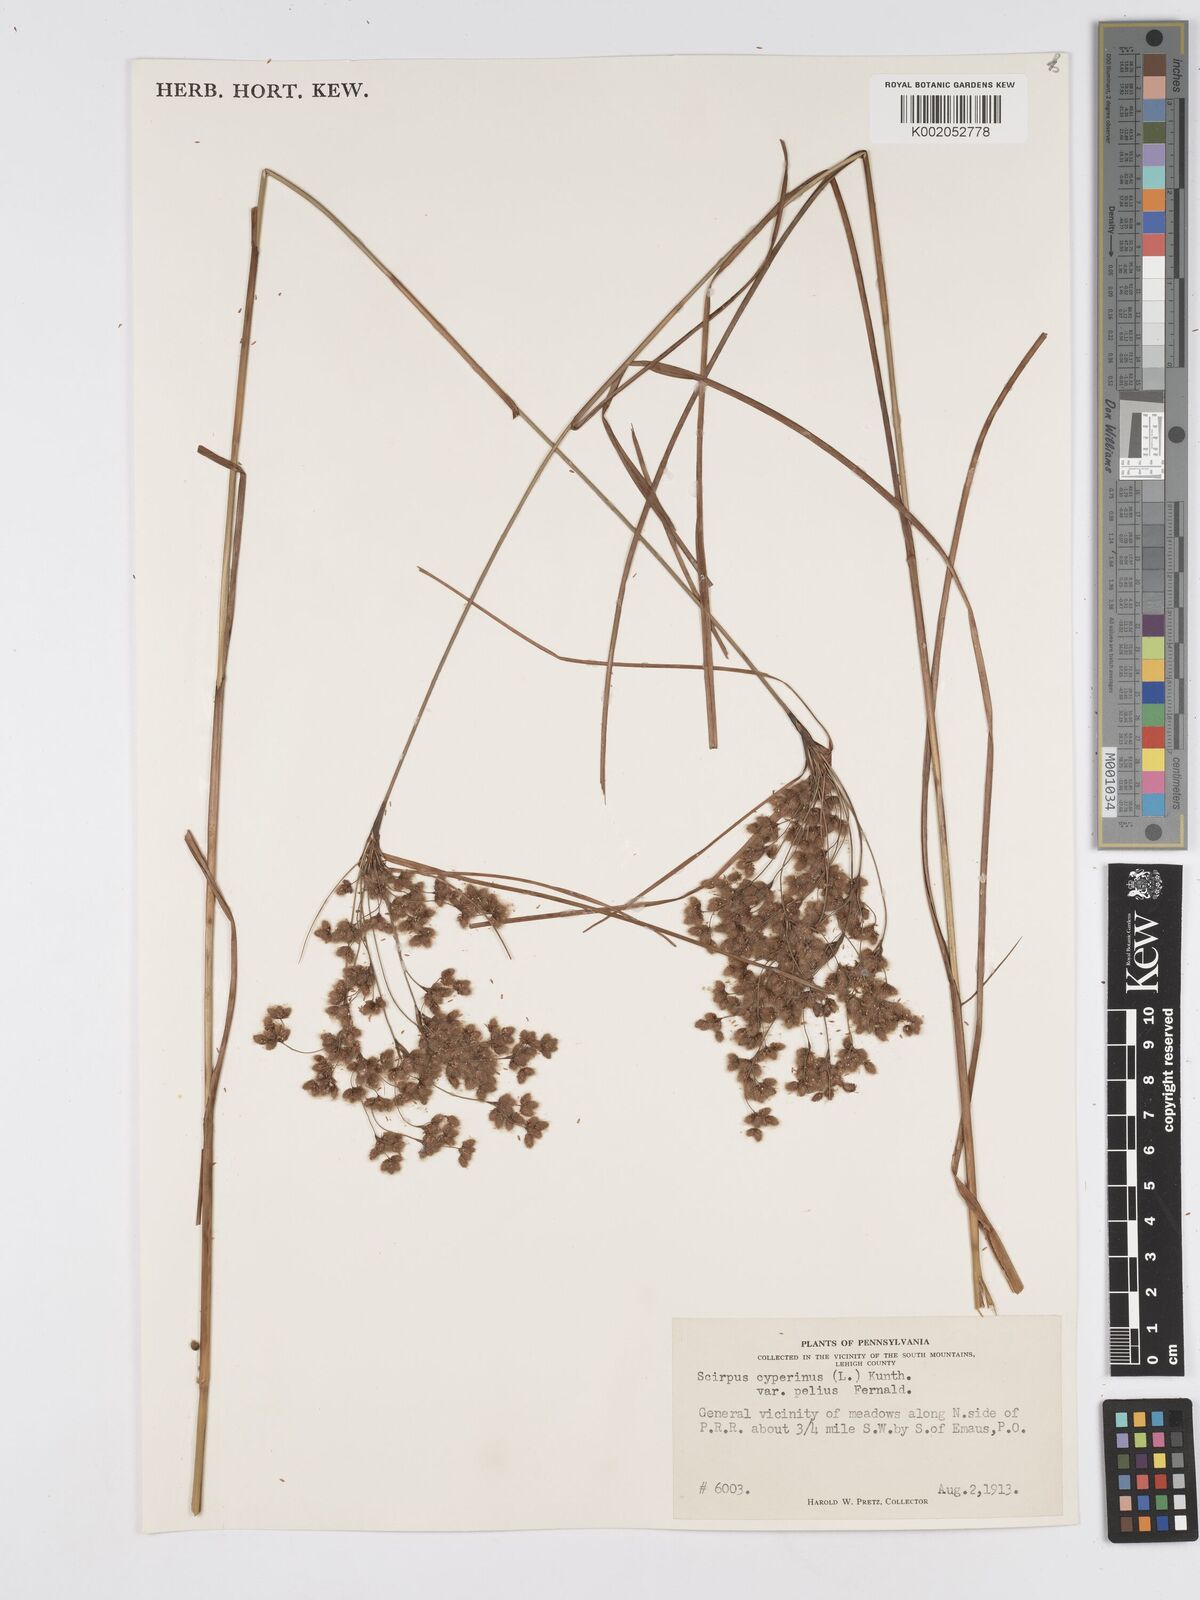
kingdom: Plantae
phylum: Tracheophyta
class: Liliopsida
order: Poales
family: Cyperaceae
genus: Scirpus
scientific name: Scirpus cyperinus
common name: Black-sheathed bulrush
